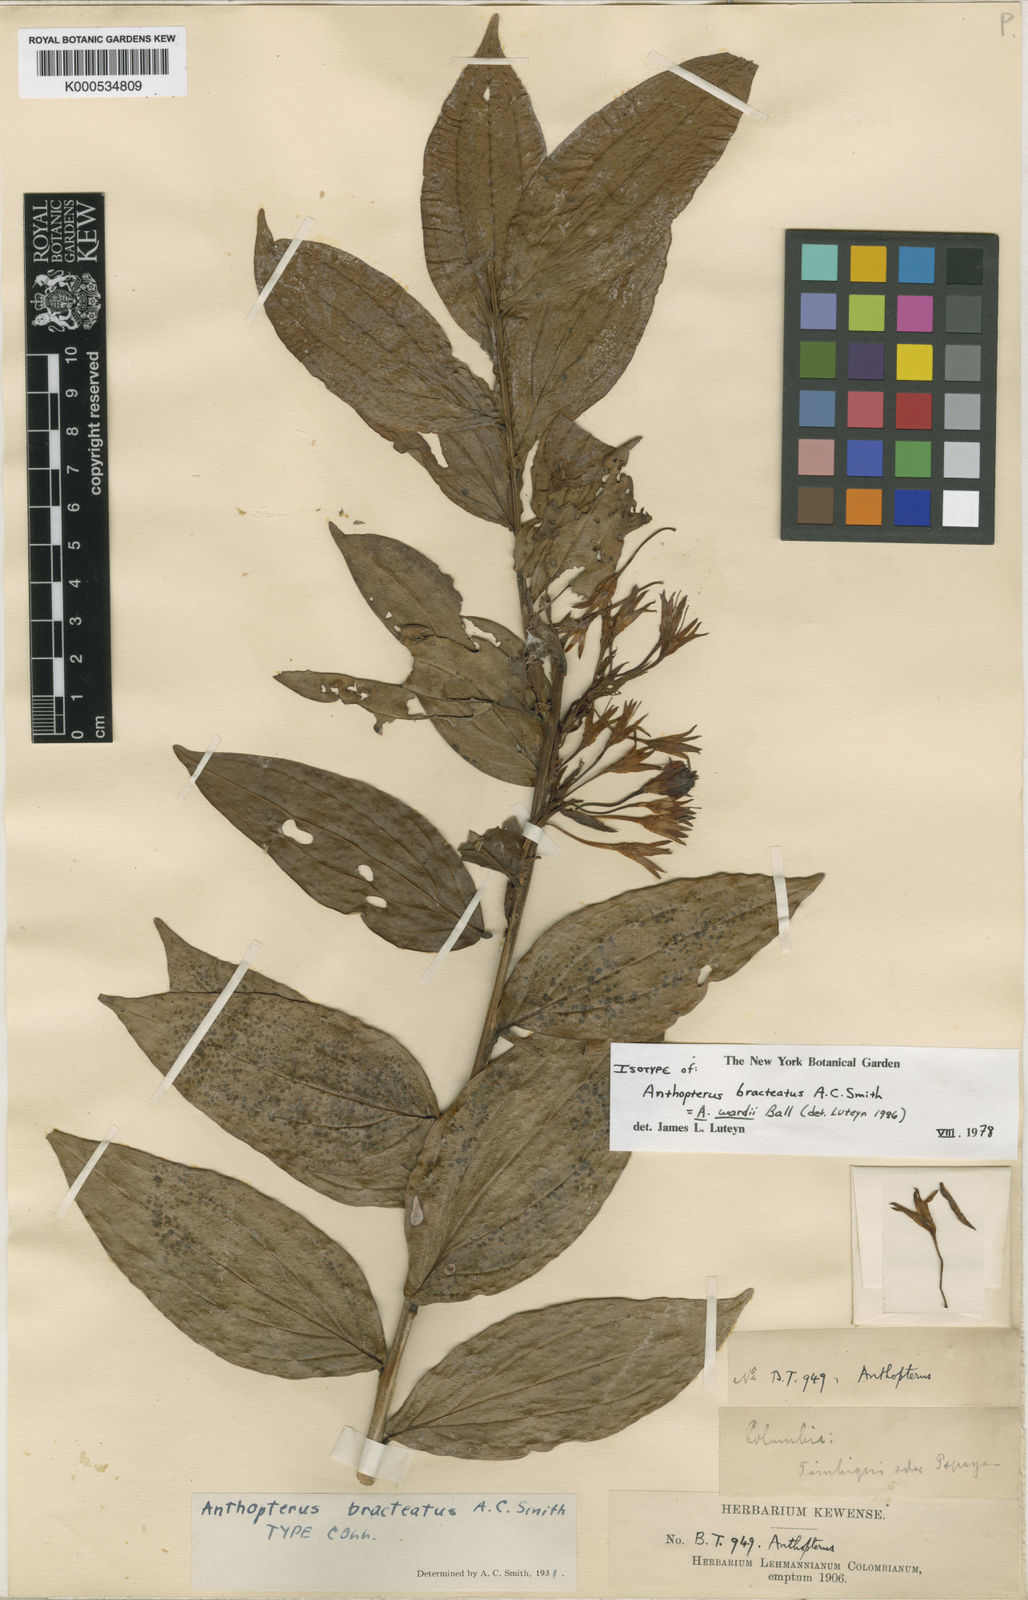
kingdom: Plantae
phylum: Tracheophyta
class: Magnoliopsida
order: Ericales
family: Ericaceae
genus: Anthopterus
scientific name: Anthopterus wardii
